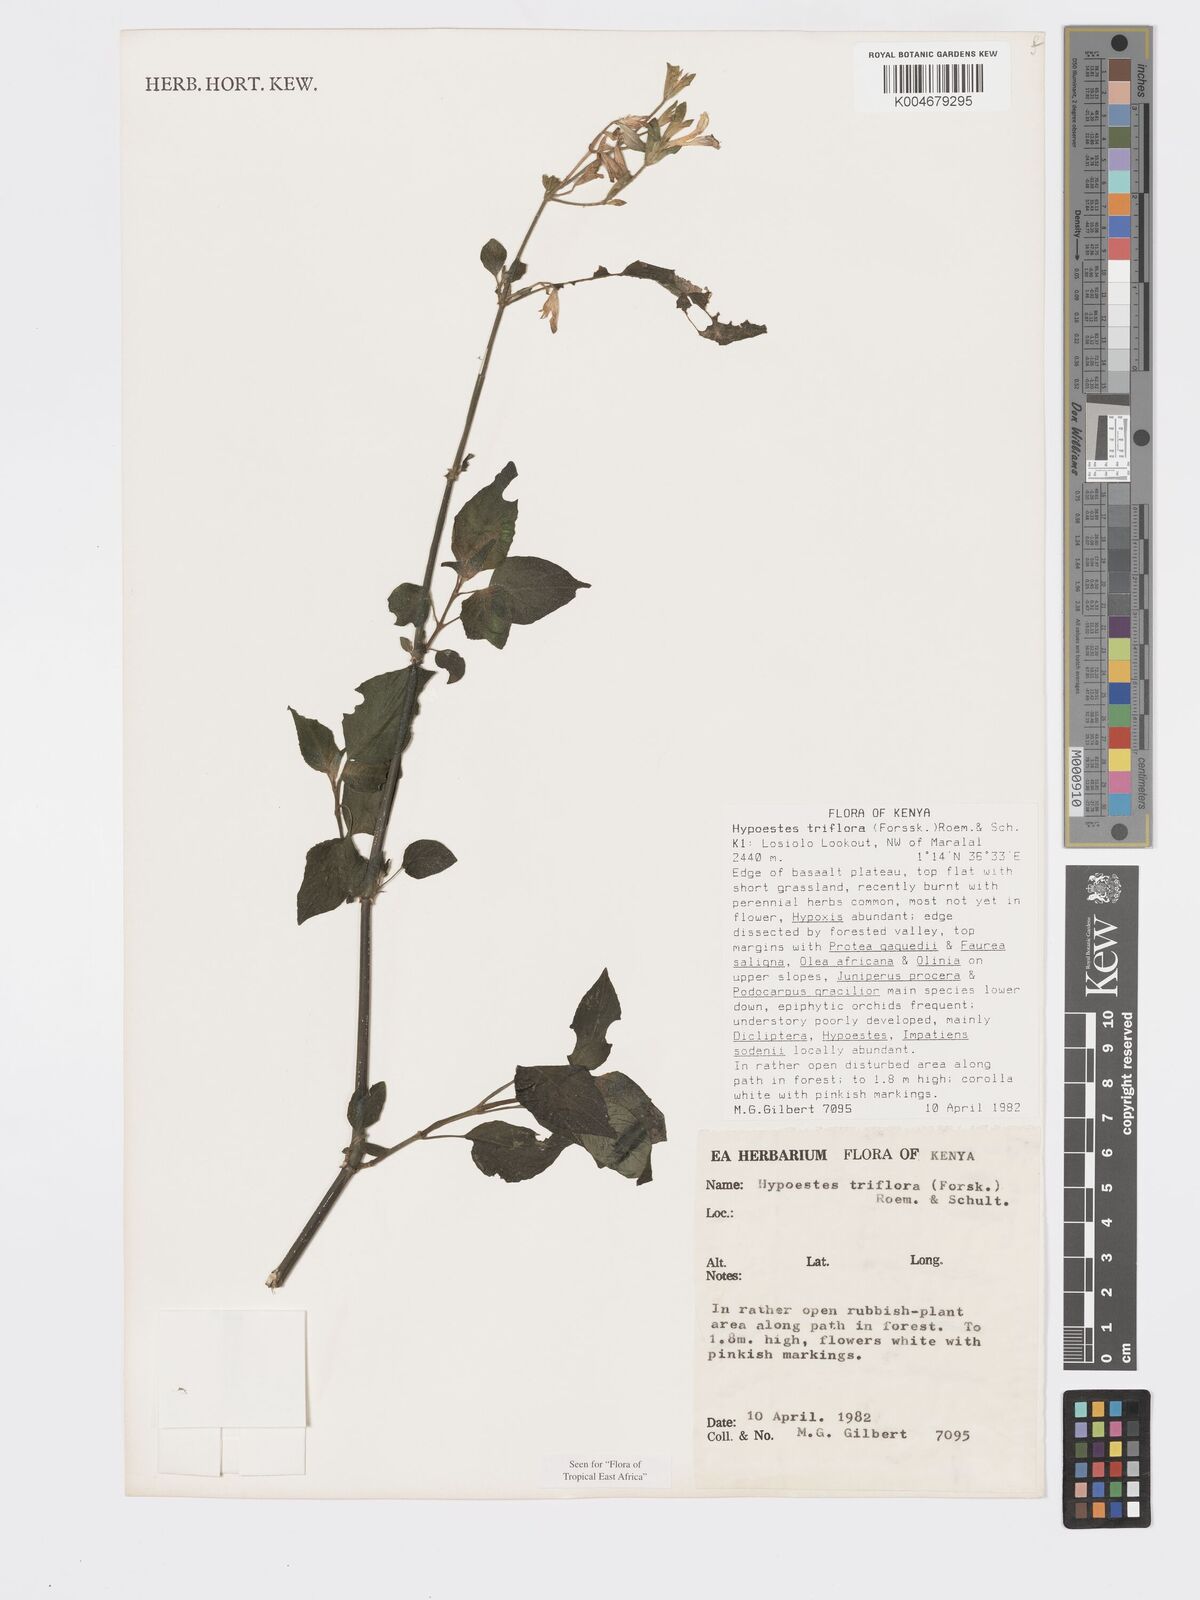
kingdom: Plantae
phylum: Tracheophyta
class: Magnoliopsida
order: Lamiales
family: Acanthaceae
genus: Hypoestes
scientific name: Hypoestes triflora
